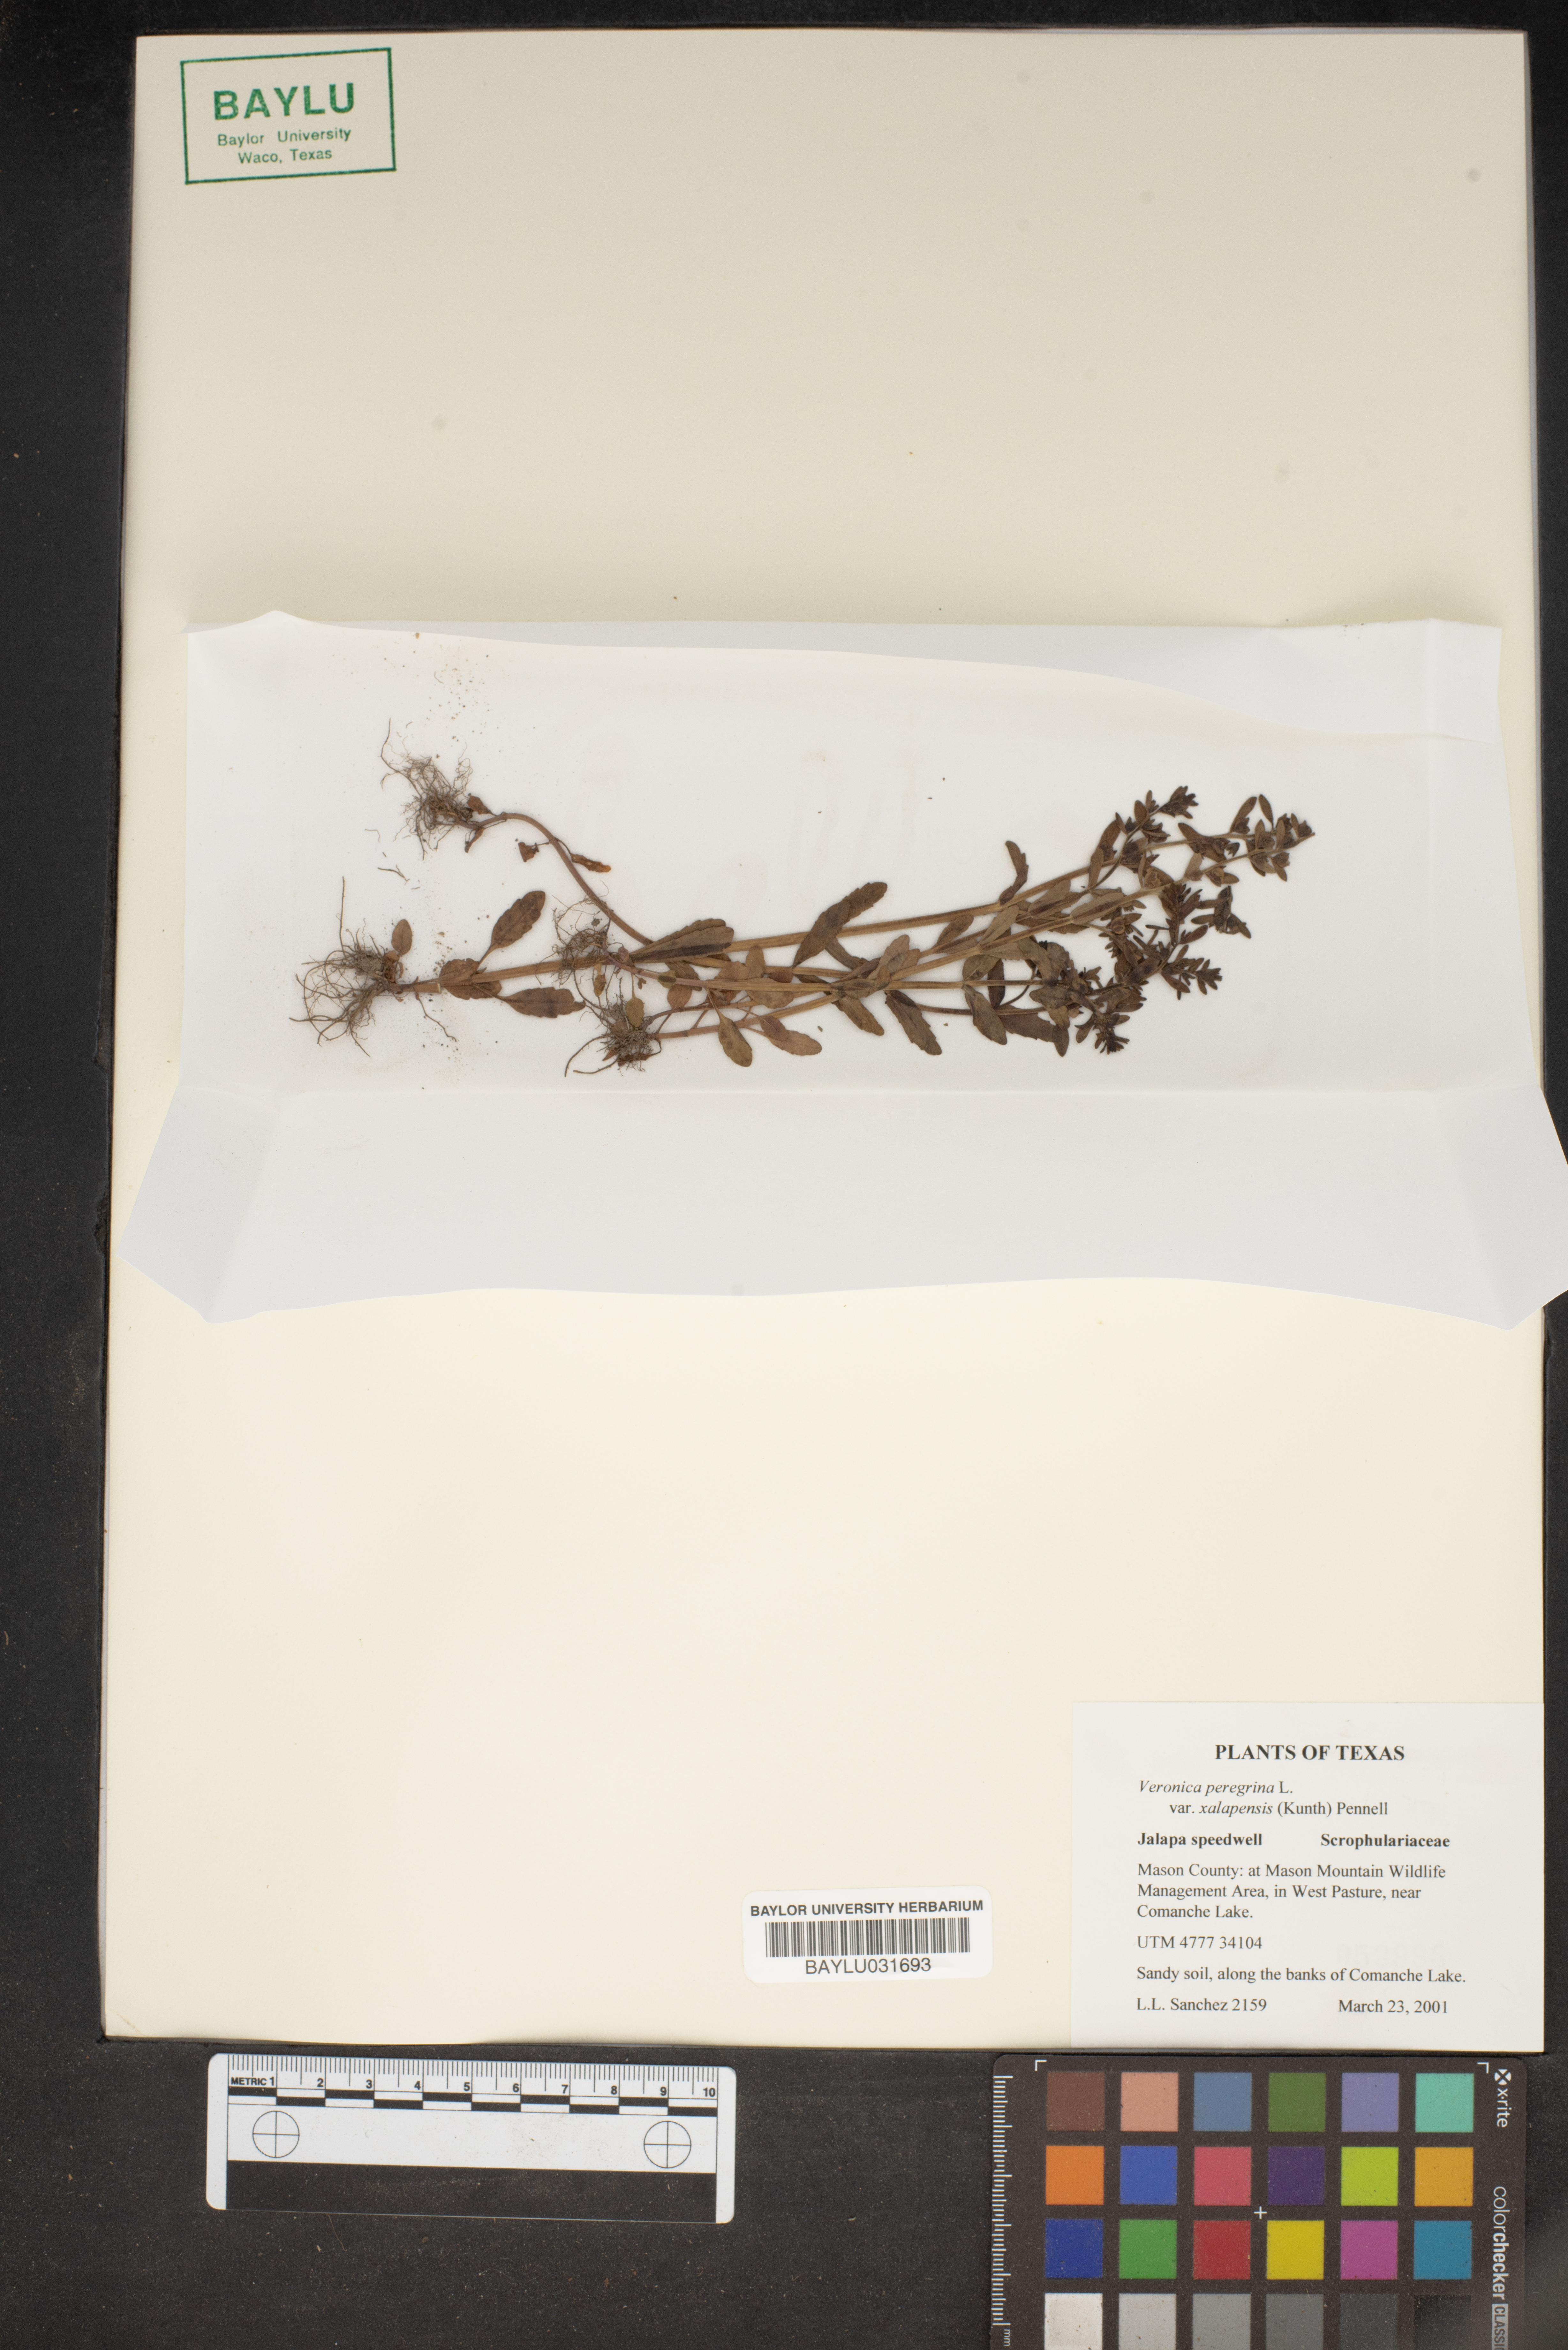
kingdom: Plantae
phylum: Tracheophyta
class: Magnoliopsida
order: Lamiales
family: Plantaginaceae
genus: Veronica
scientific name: Veronica peregrina
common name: Neckweed
